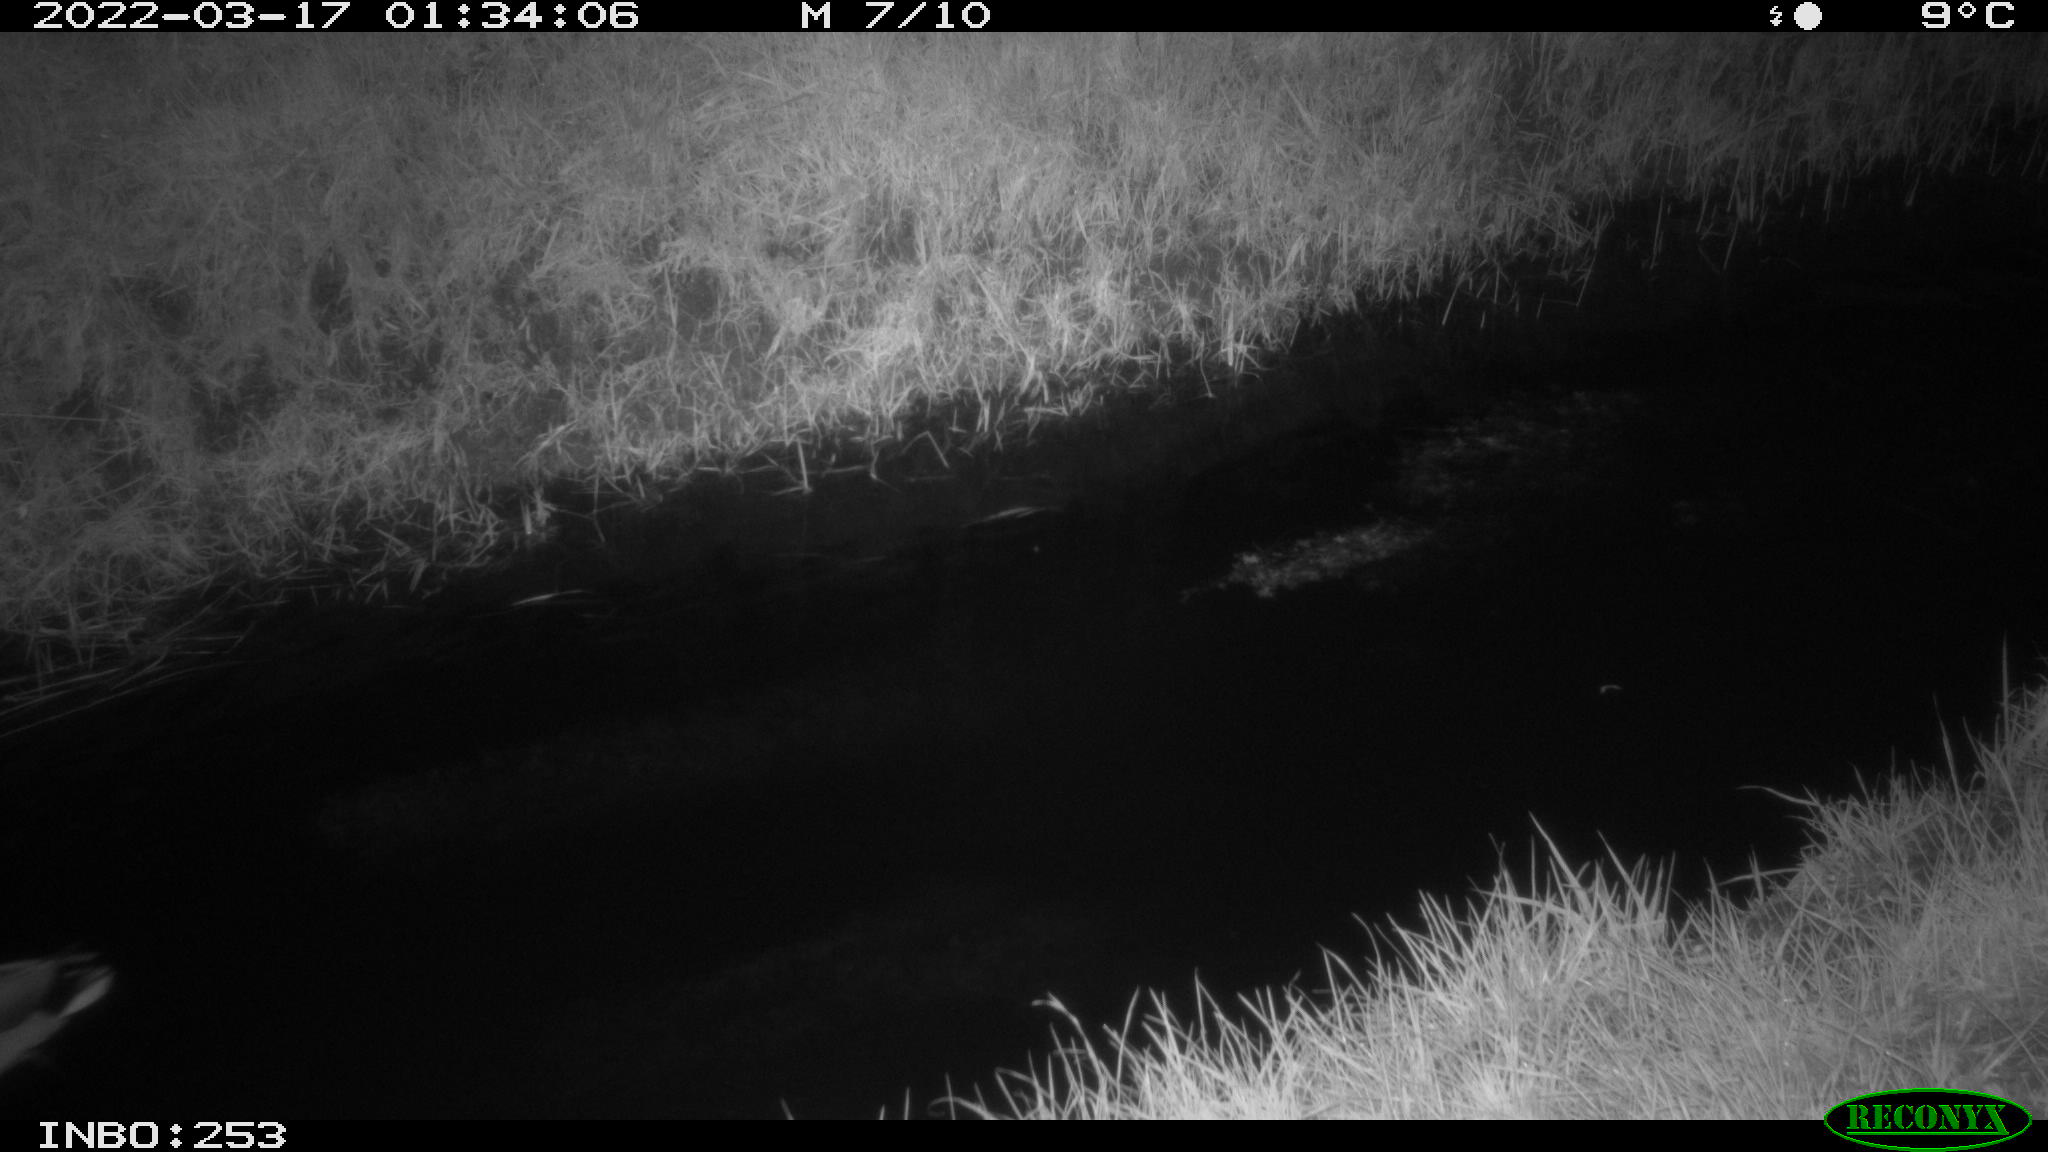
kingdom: Animalia
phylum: Chordata
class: Aves
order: Anseriformes
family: Anatidae
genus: Anas
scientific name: Anas platyrhynchos
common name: Mallard
